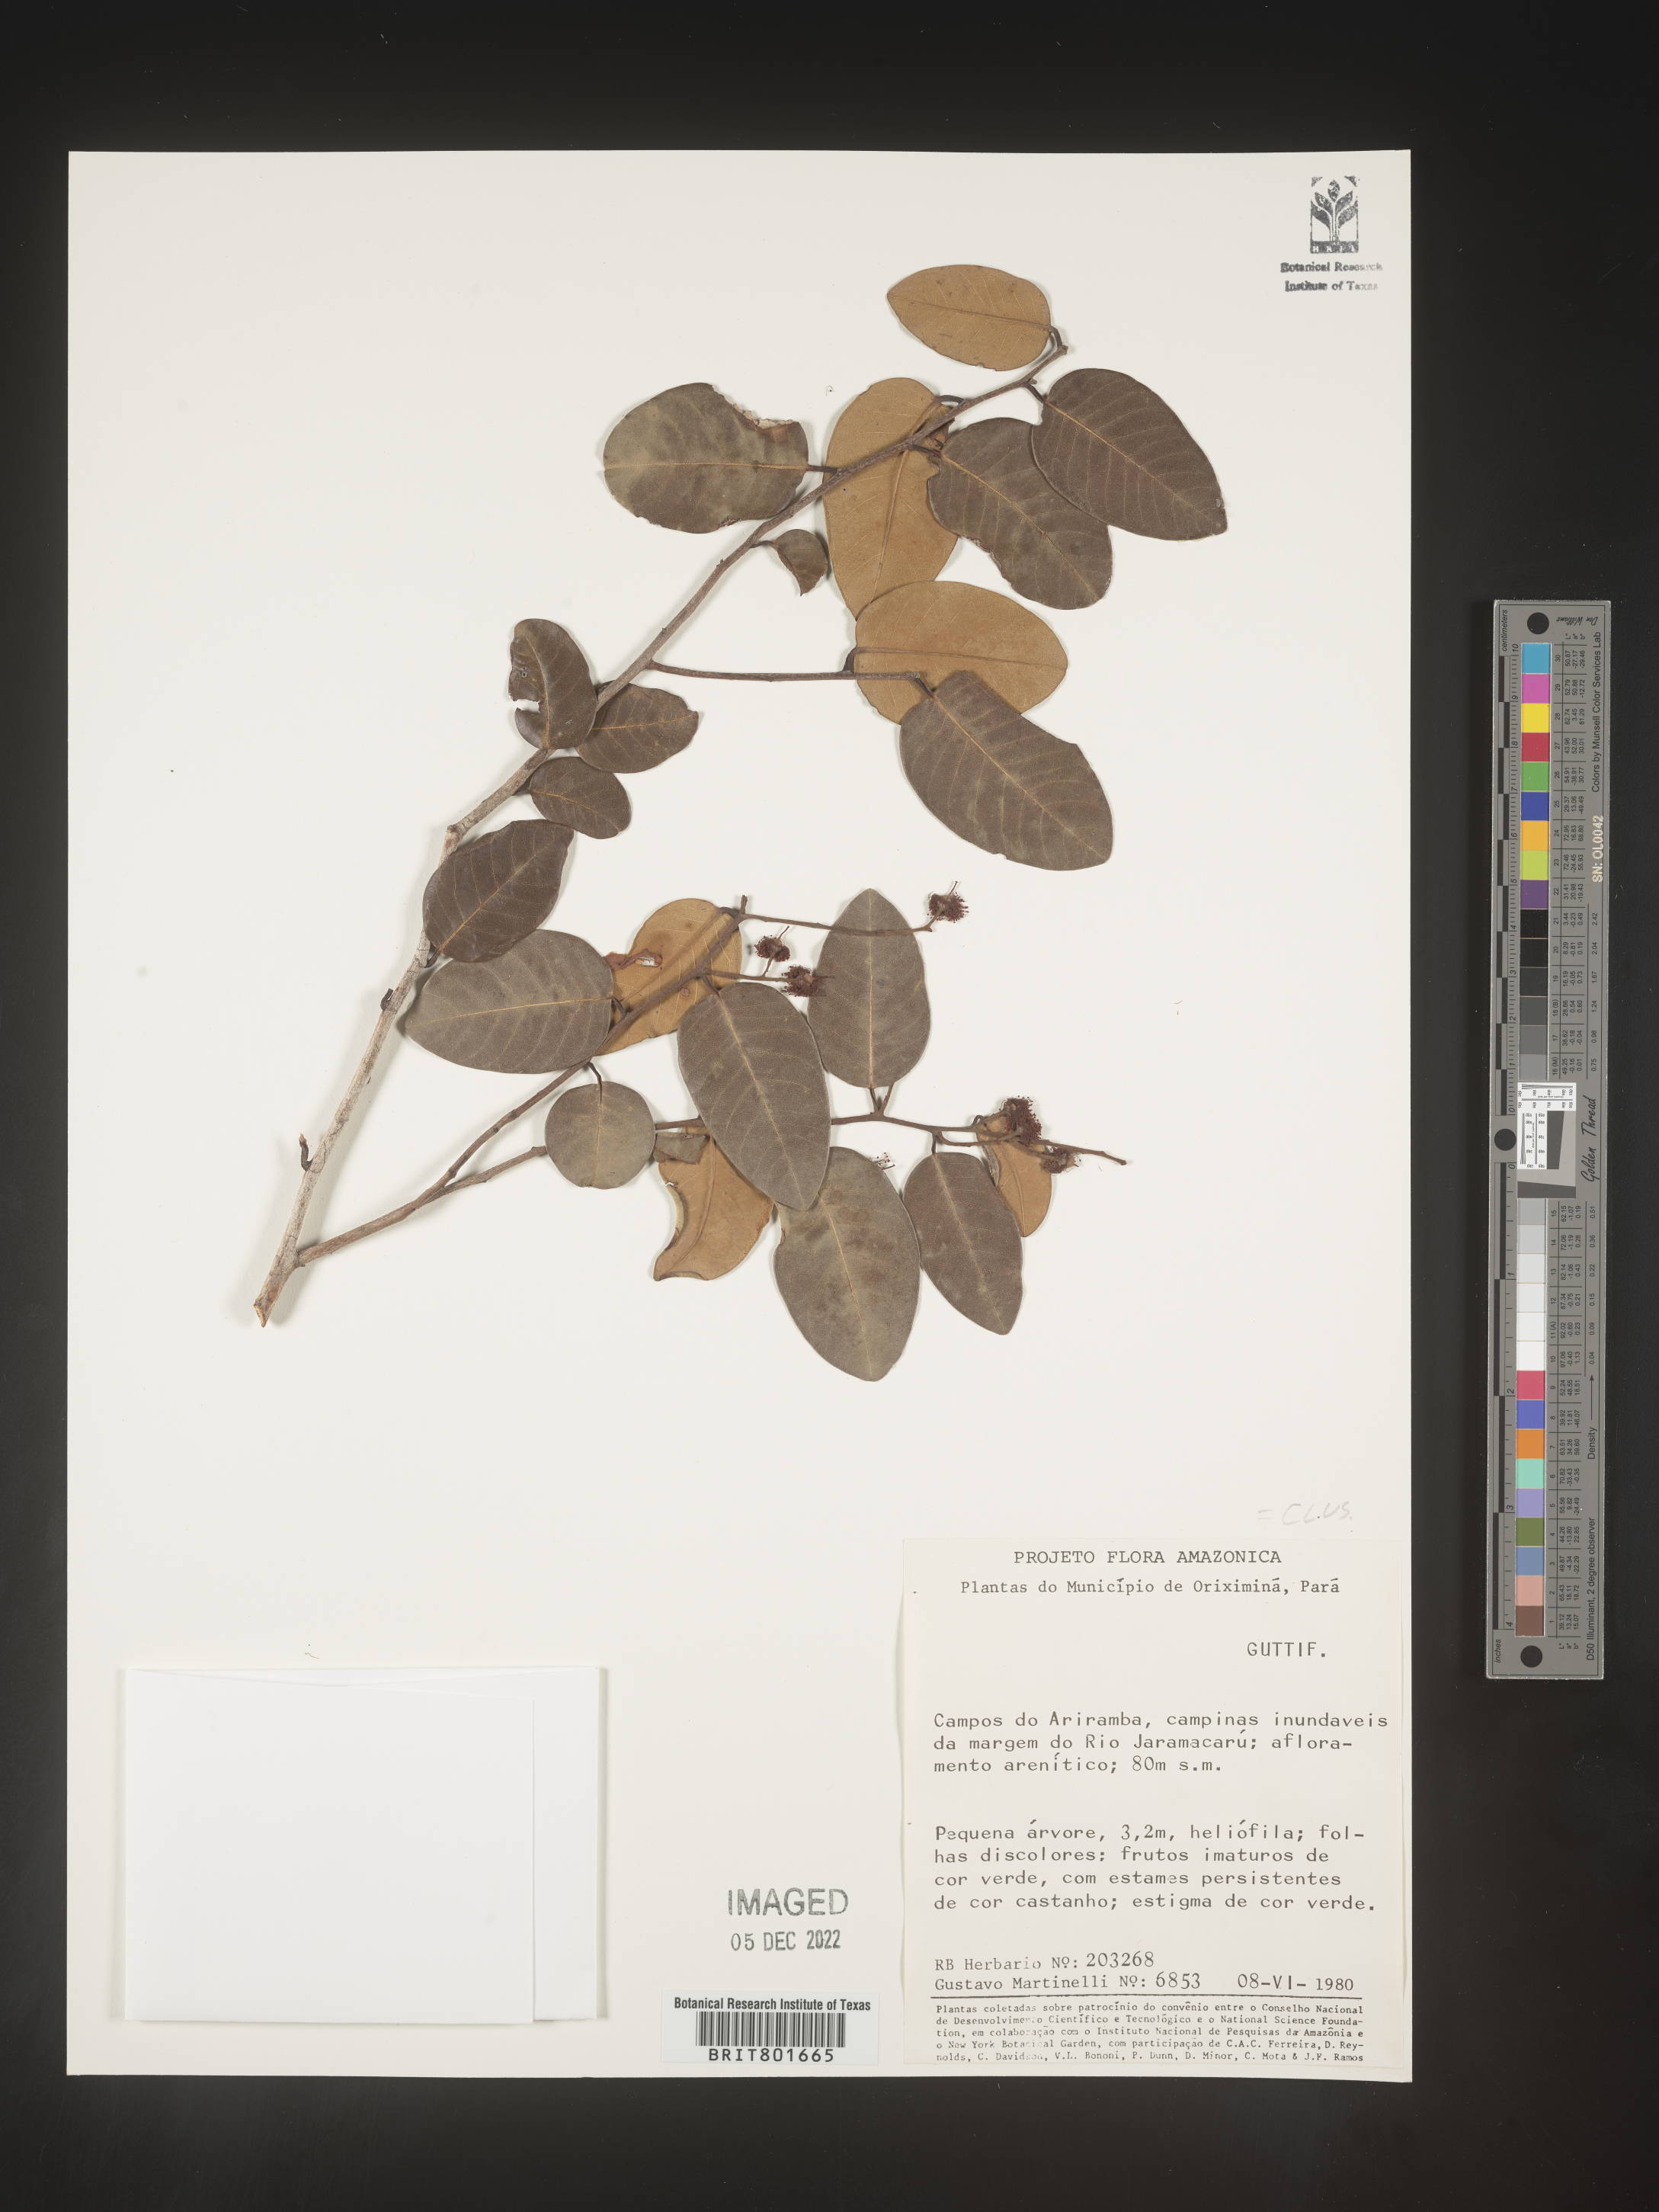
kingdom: Plantae
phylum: Tracheophyta
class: Magnoliopsida
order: Malpighiales
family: Clusiaceae
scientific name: Clusiaceae
